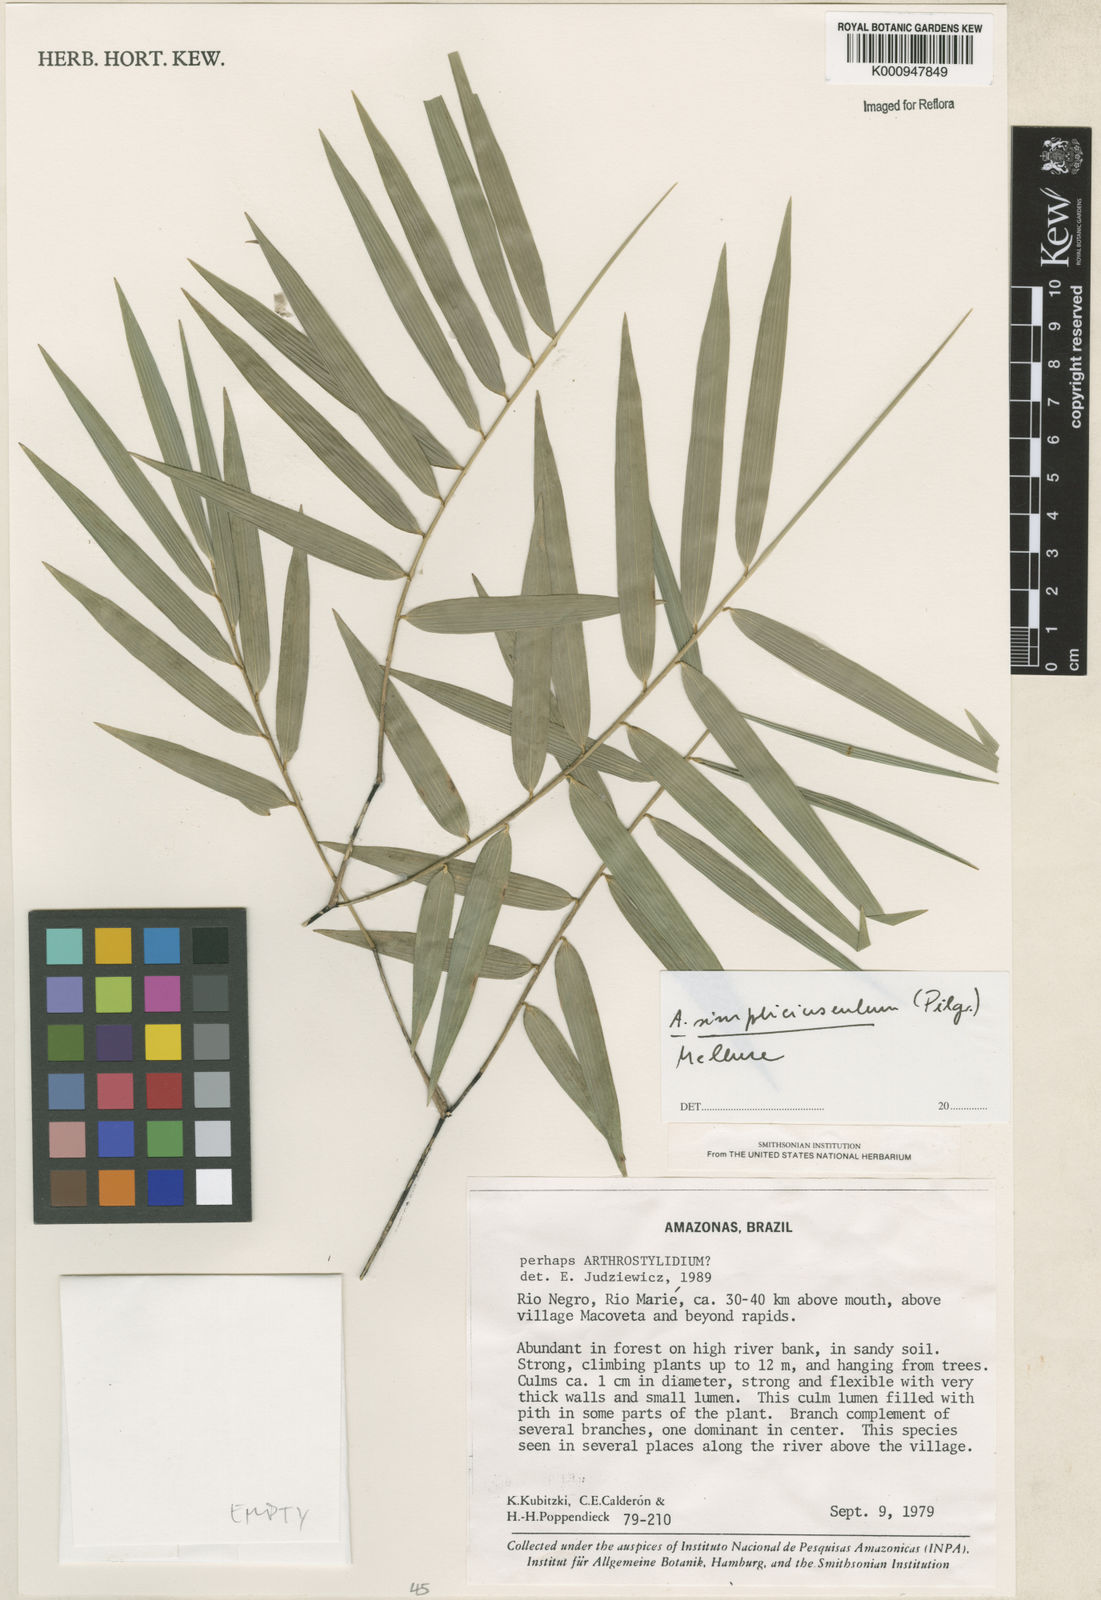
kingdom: Plantae
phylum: Tracheophyta
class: Liliopsida
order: Poales
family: Poaceae
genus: Arthrostylidium
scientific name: Arthrostylidium simpliciusculum
